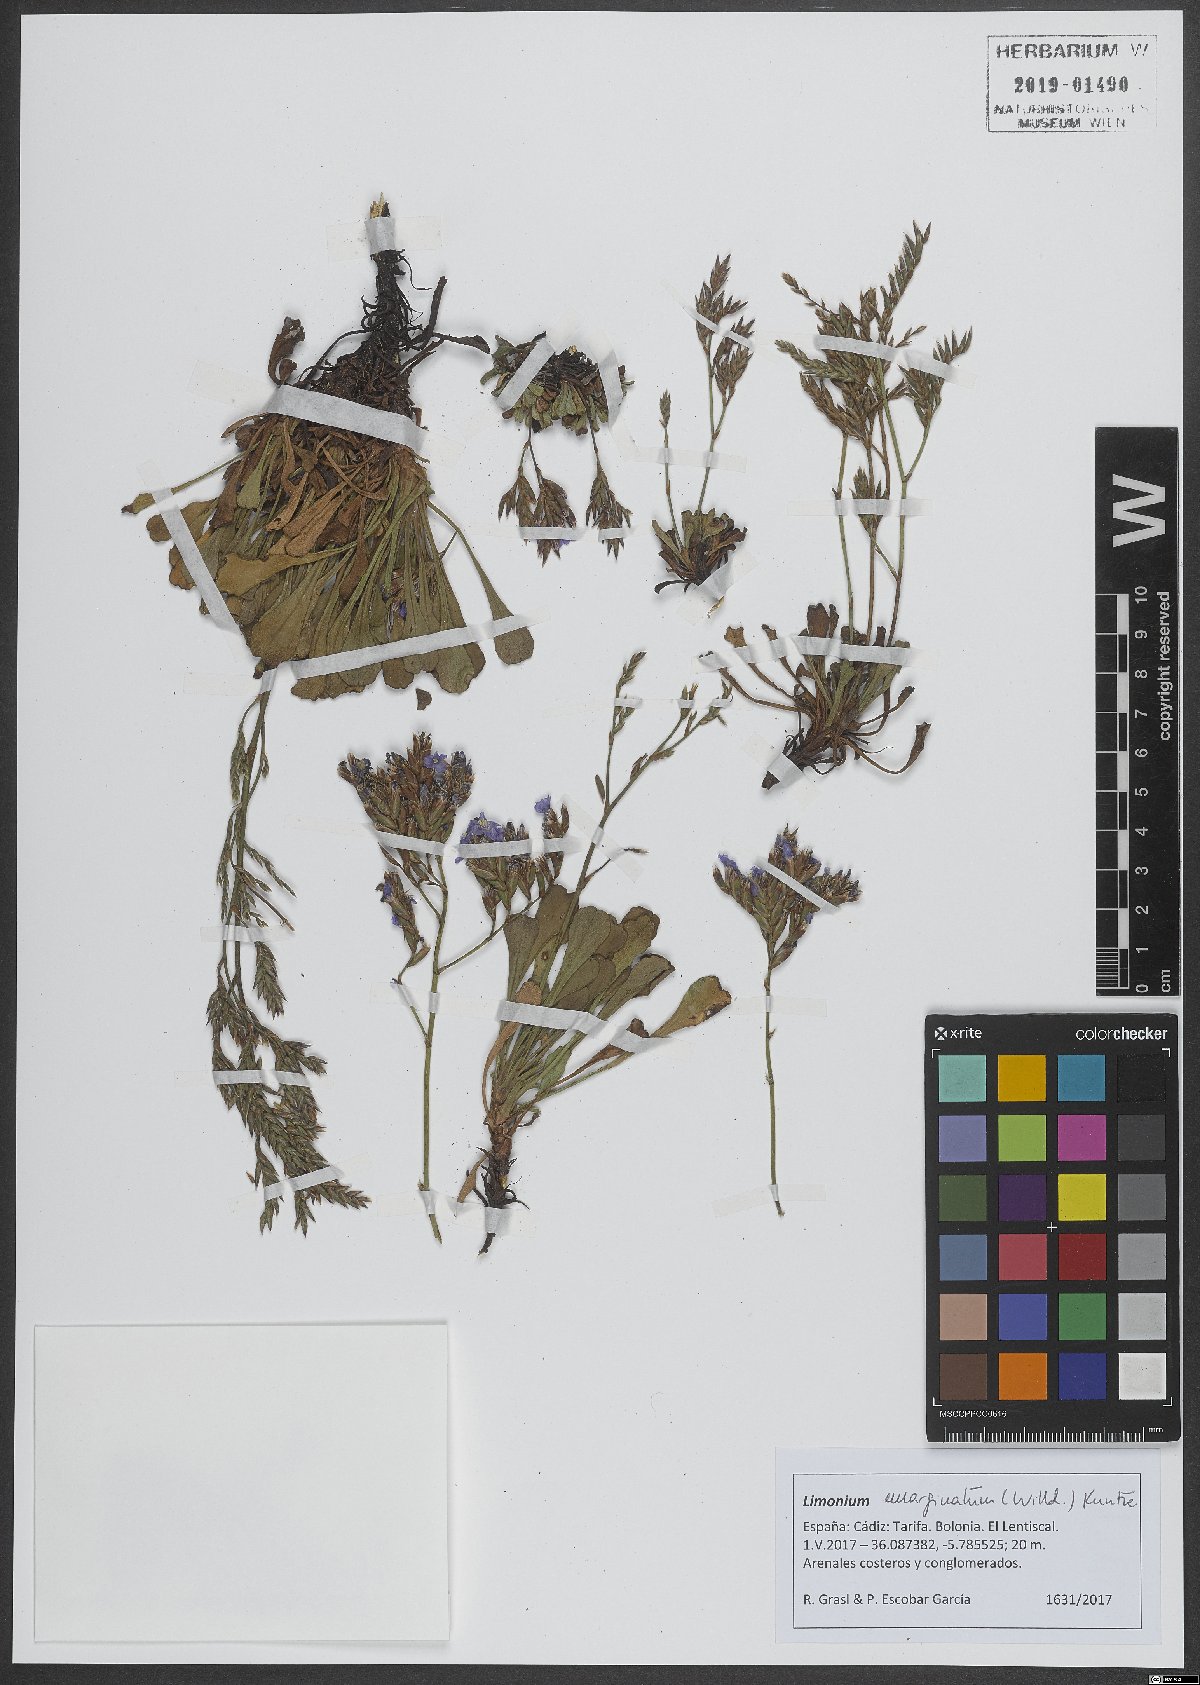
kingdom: Plantae
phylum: Tracheophyta
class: Magnoliopsida
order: Caryophyllales
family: Plumbaginaceae
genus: Limonium
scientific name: Limonium emarginatum
